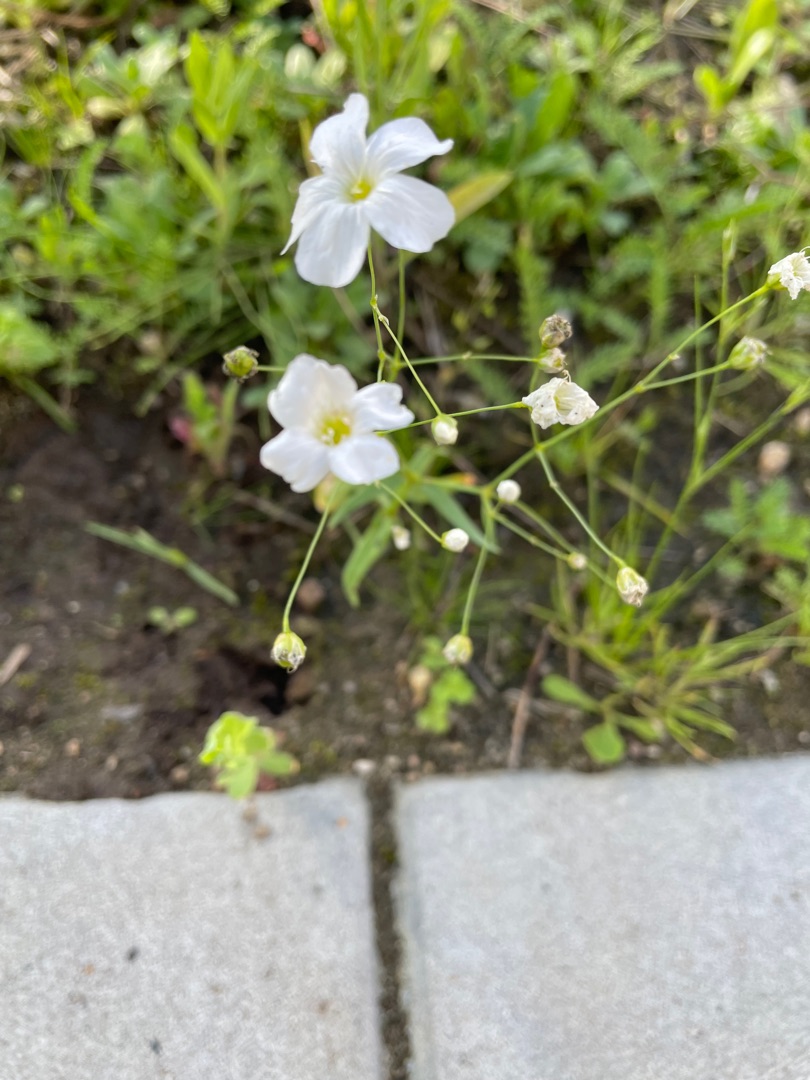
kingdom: Plantae
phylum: Tracheophyta
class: Magnoliopsida
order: Caryophyllales
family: Caryophyllaceae
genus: Gypsophila
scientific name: Gypsophila elegans
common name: Enårig brudeslør
